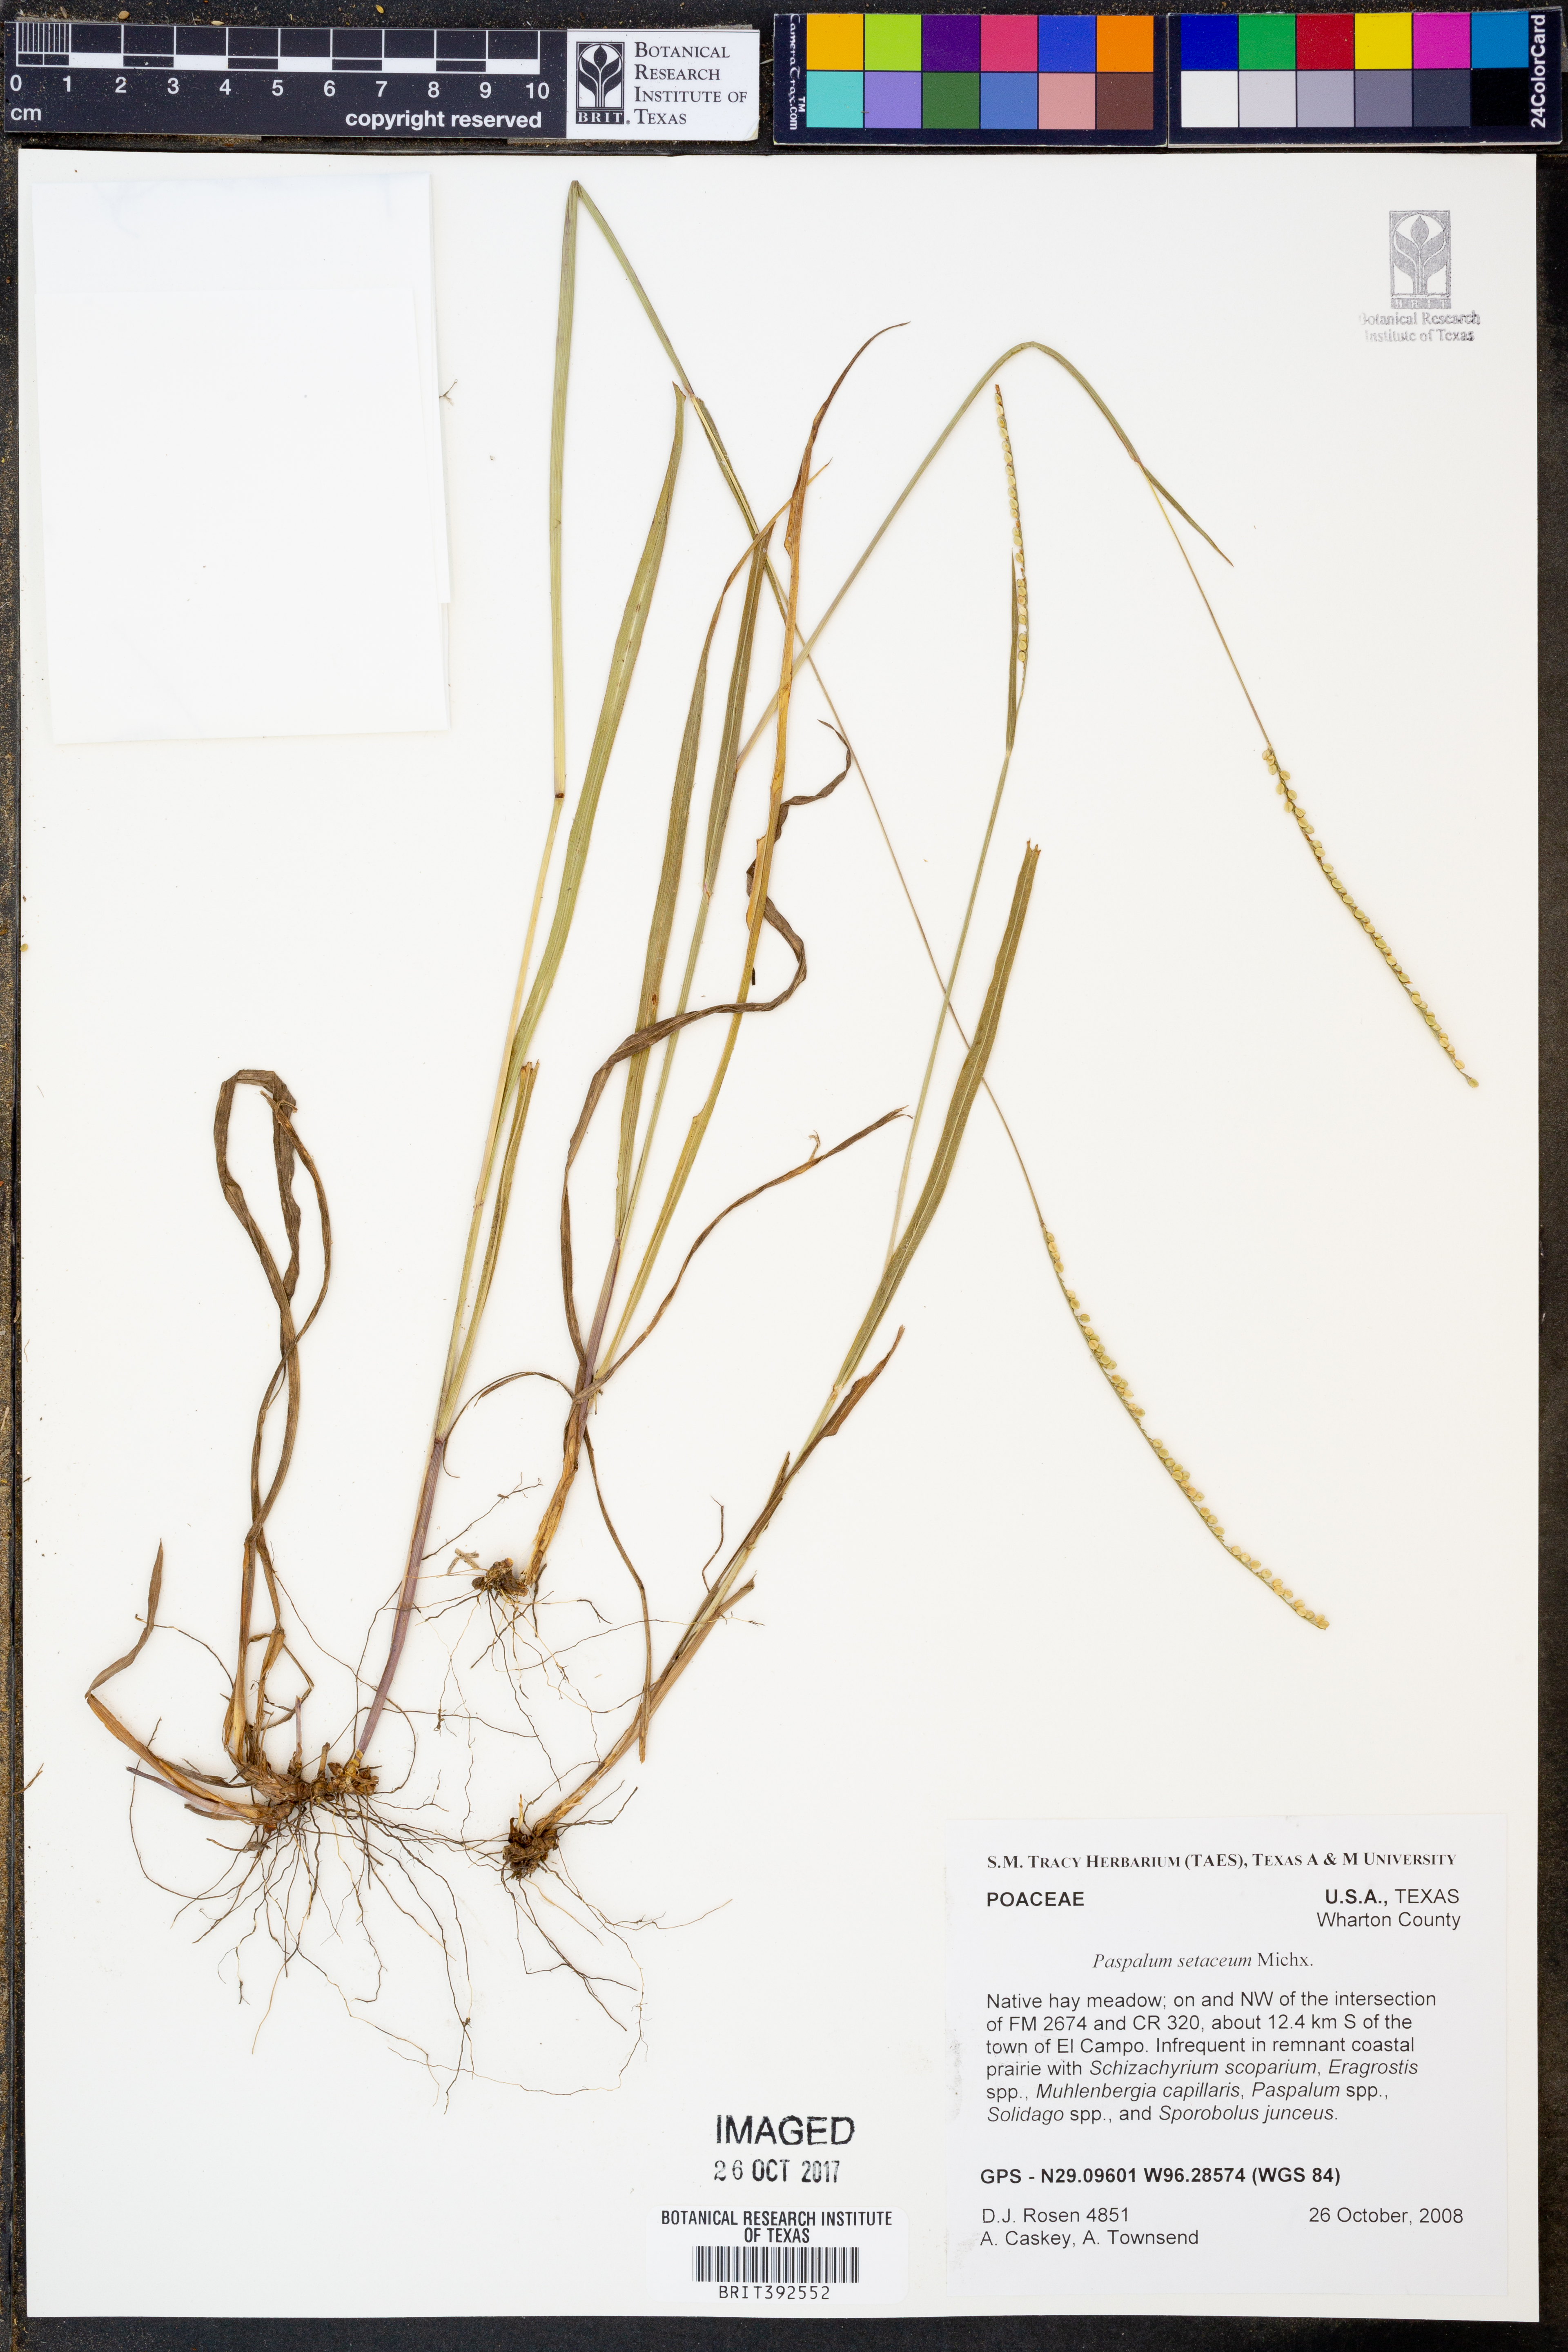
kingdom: Plantae
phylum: Tracheophyta
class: Liliopsida
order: Poales
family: Poaceae
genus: Paspalum
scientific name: Paspalum setaceum
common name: Slender paspalum
